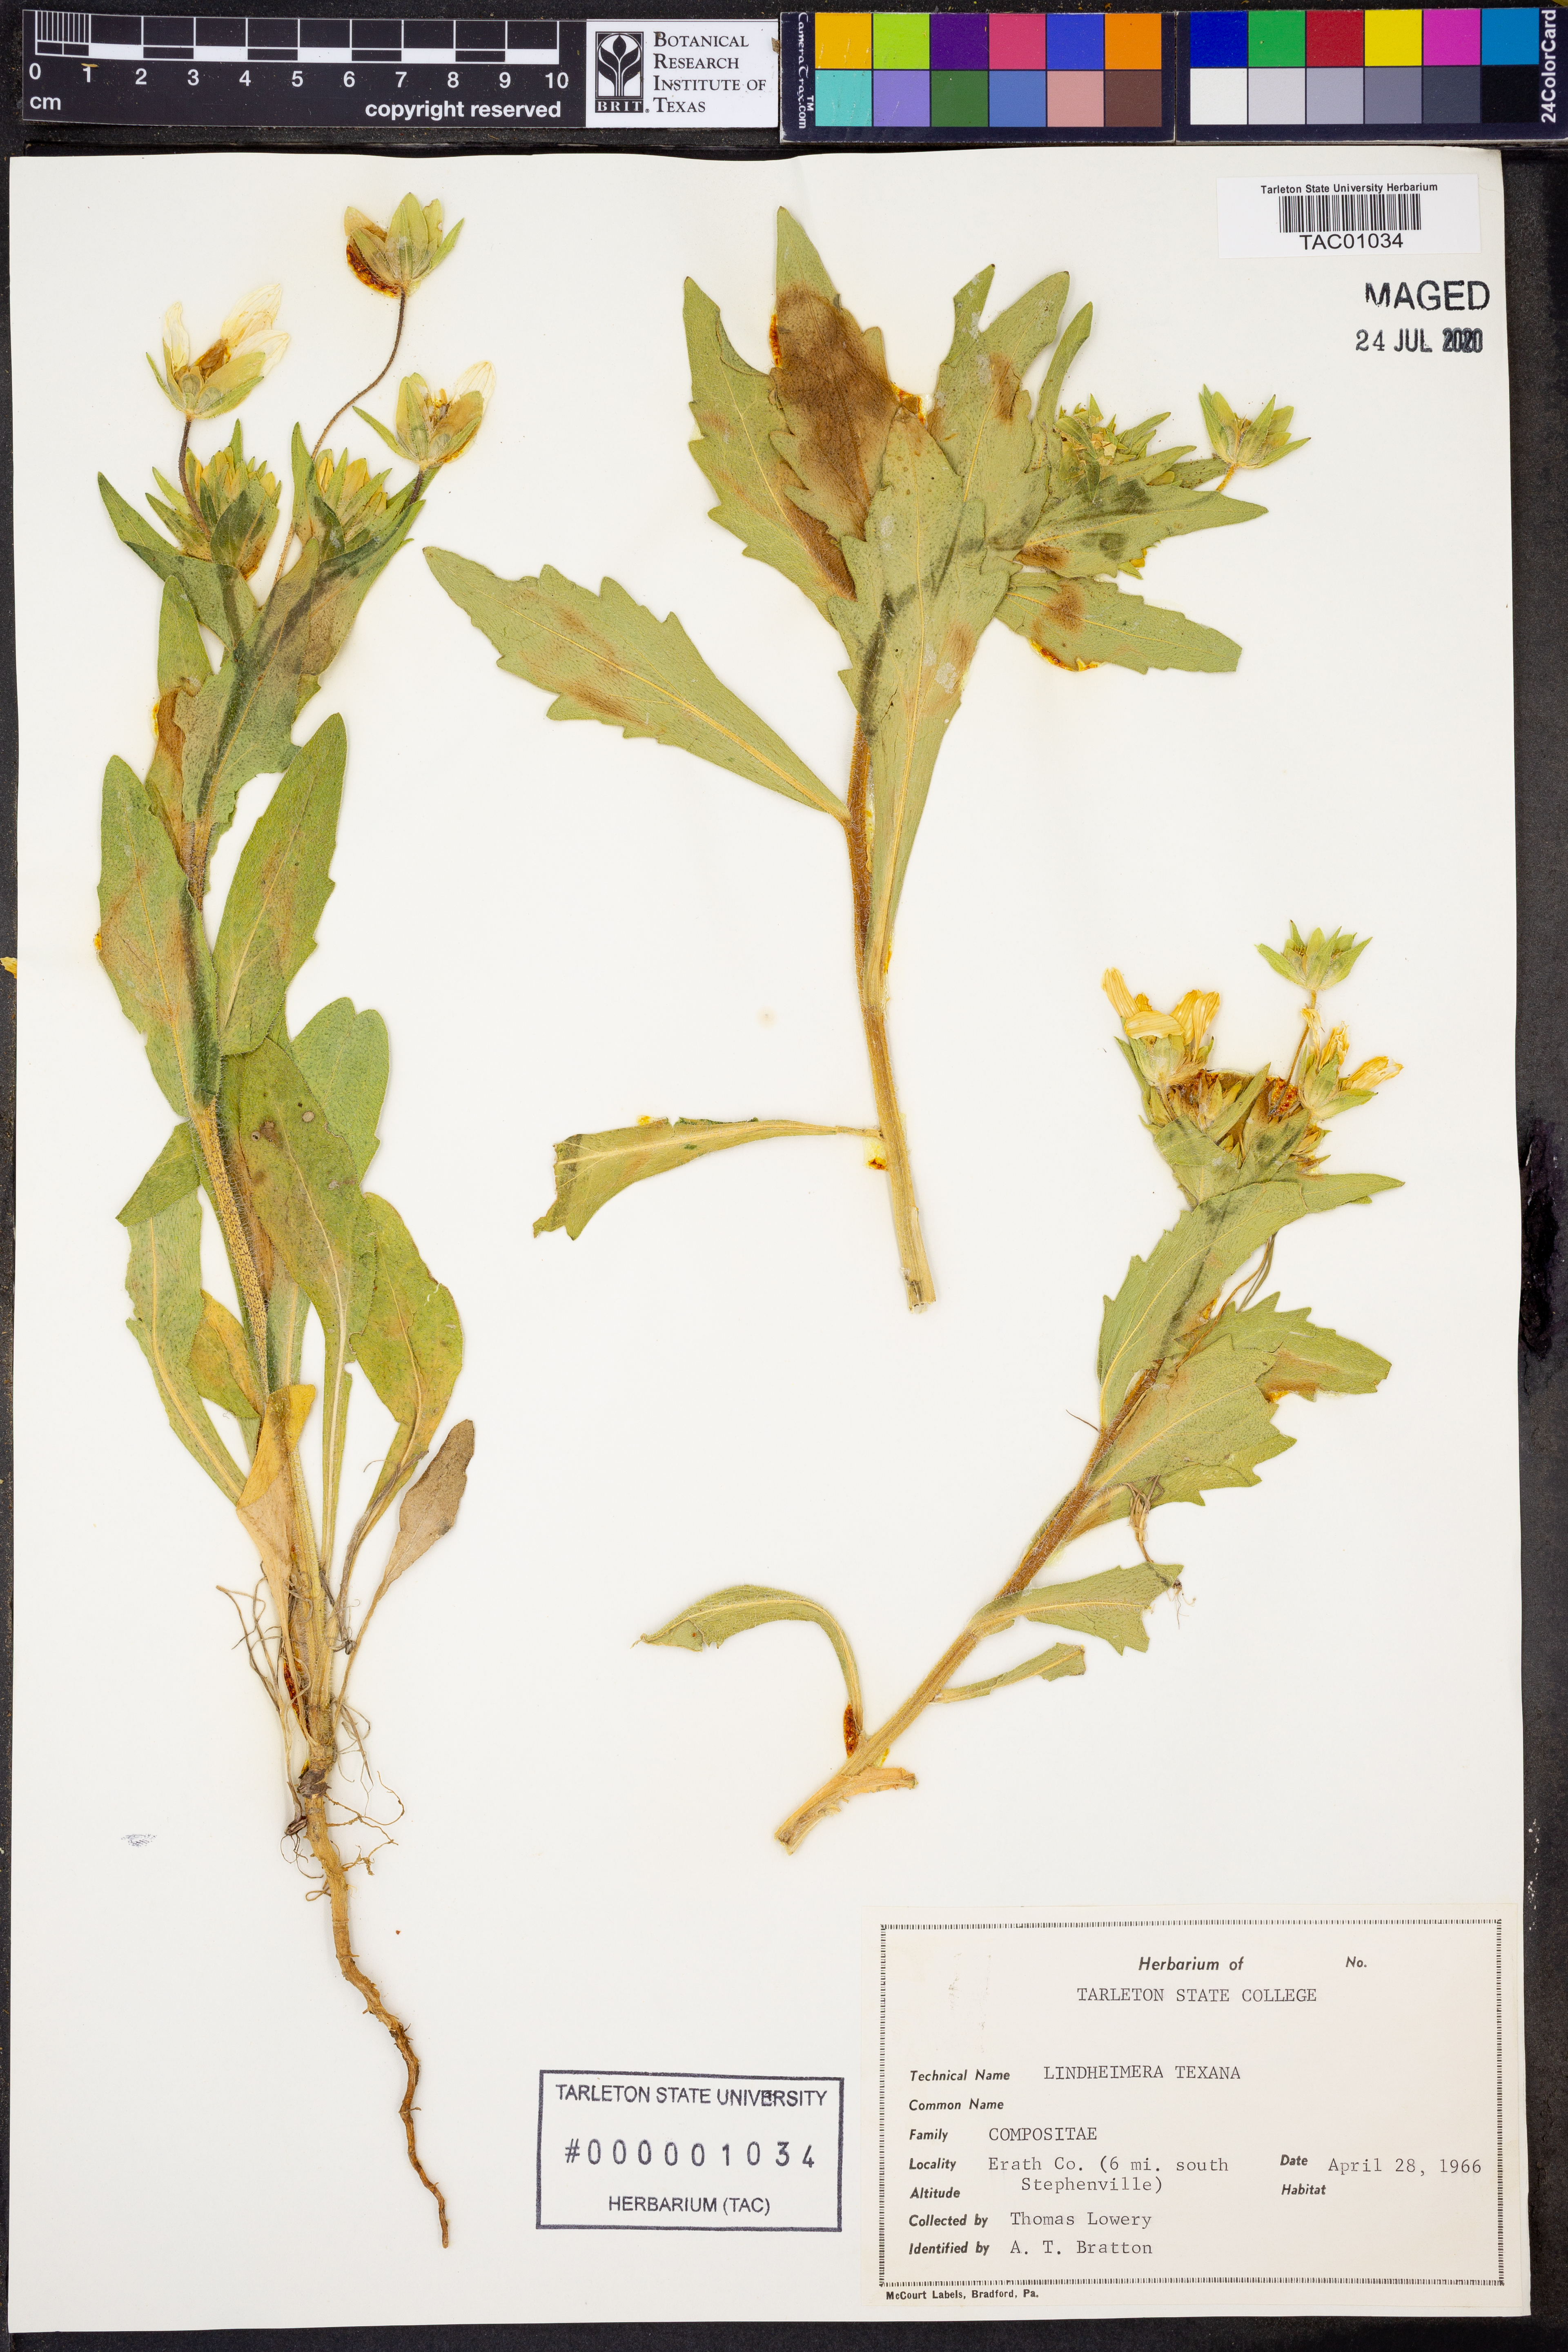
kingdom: Plantae
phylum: Tracheophyta
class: Magnoliopsida
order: Asterales
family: Asteraceae
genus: Lindheimera
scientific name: Lindheimera texana
